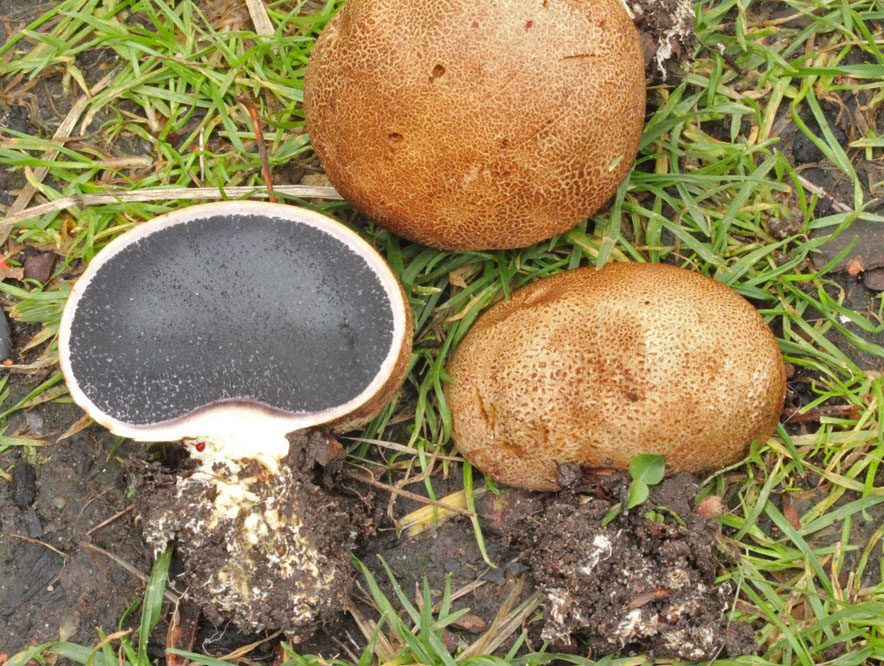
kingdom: Fungi
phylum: Basidiomycota
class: Agaricomycetes
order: Boletales
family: Sclerodermataceae
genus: Scleroderma
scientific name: Scleroderma cepa
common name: rødbrun bruskbold
